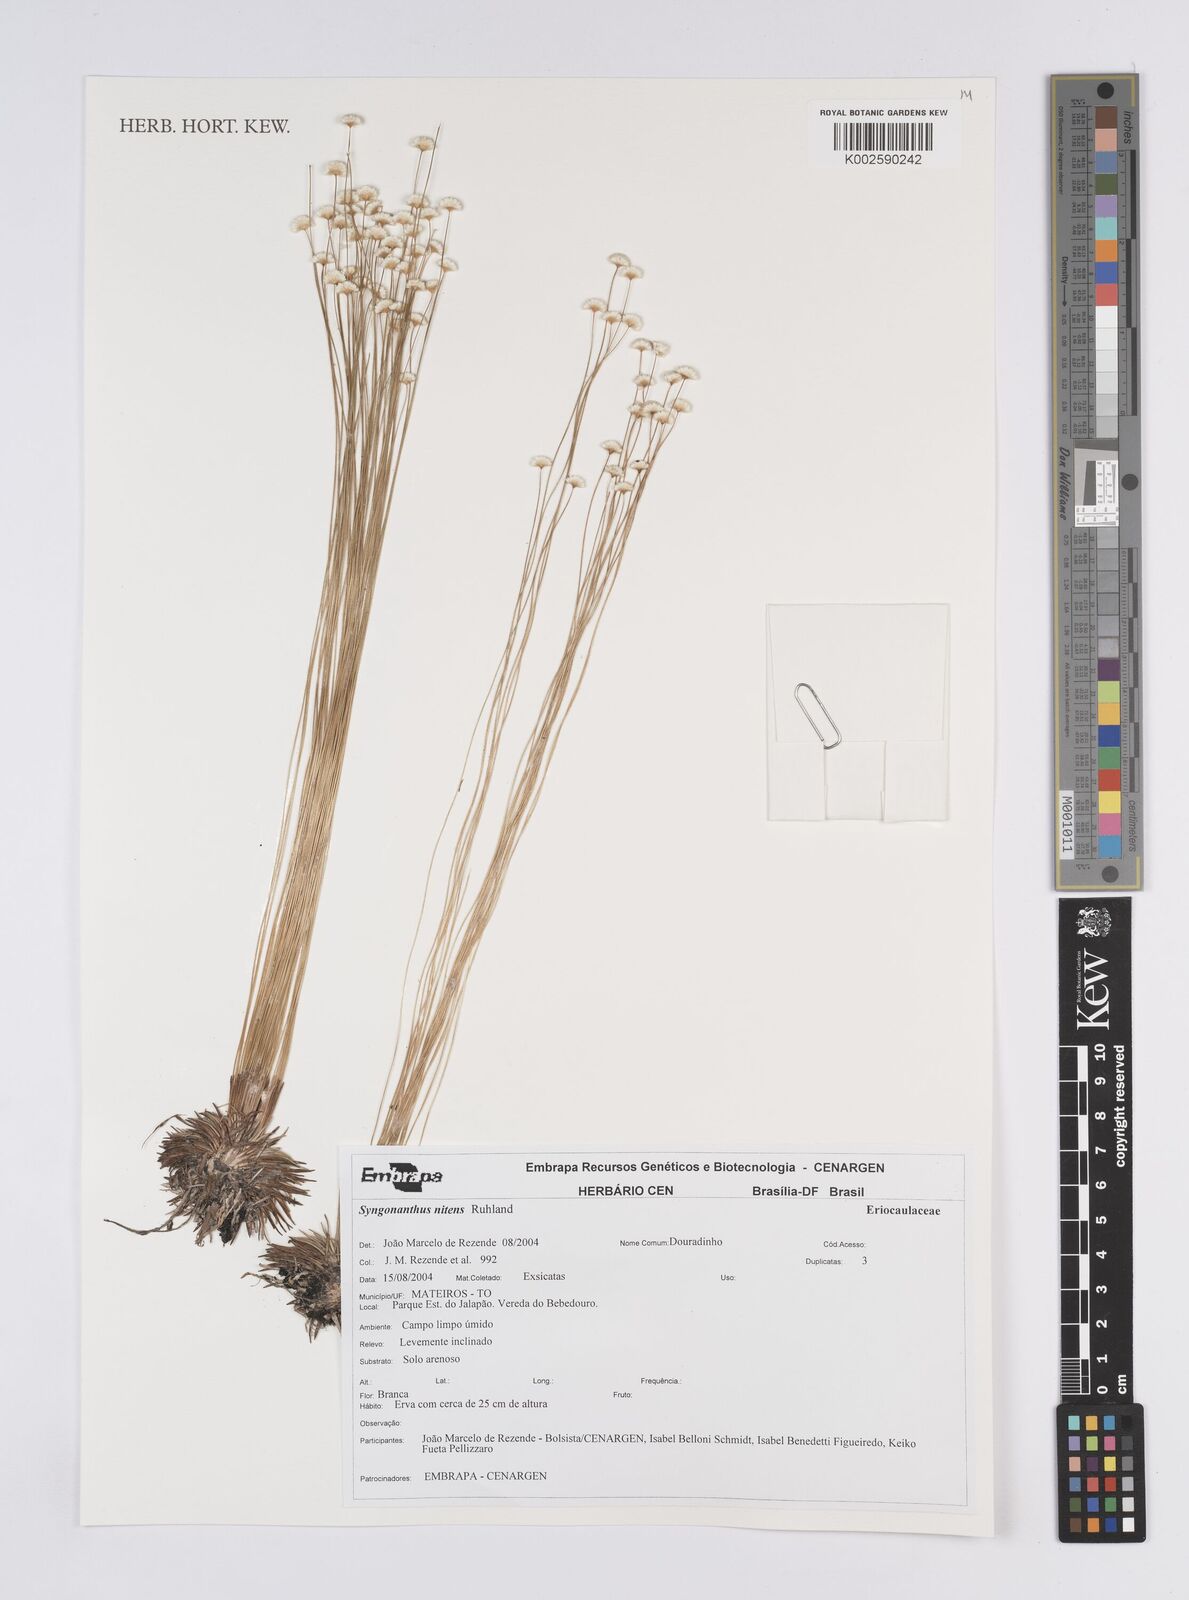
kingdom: Plantae
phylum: Tracheophyta
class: Liliopsida
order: Poales
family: Eriocaulaceae
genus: Syngonanthus
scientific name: Syngonanthus nitens
